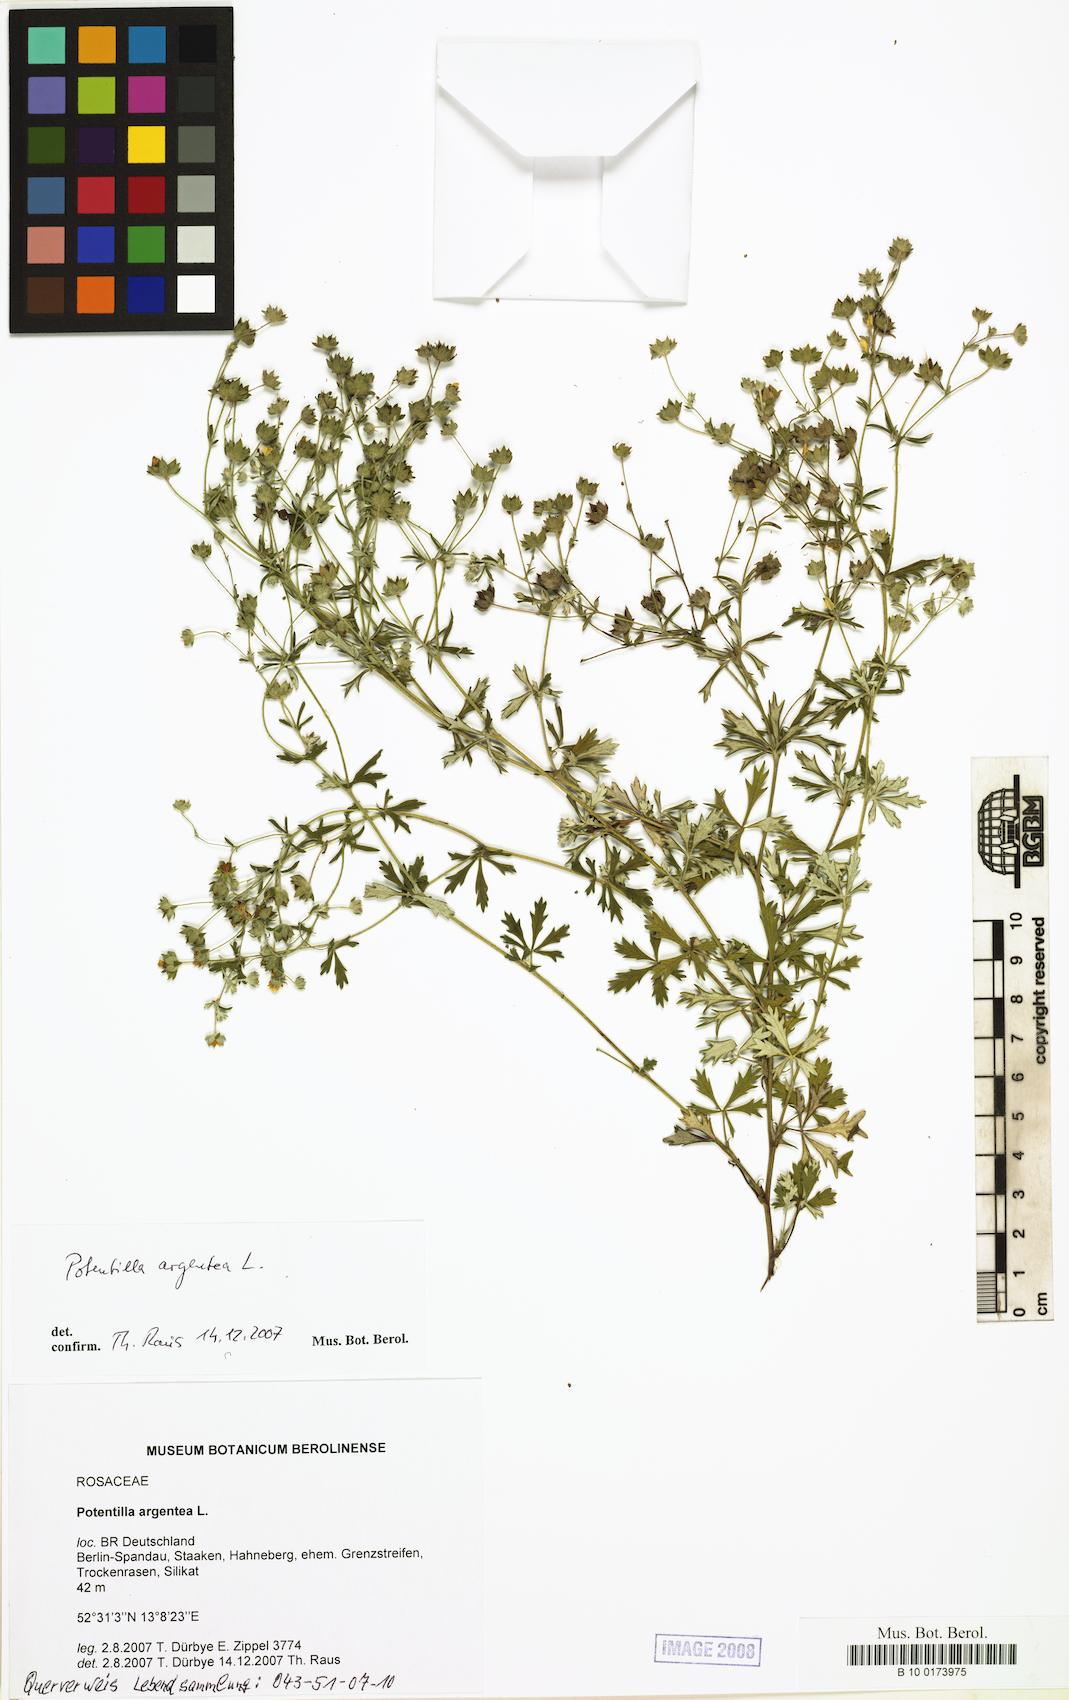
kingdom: Plantae
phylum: Tracheophyta
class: Magnoliopsida
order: Rosales
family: Rosaceae
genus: Potentilla
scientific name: Potentilla argentea
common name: Hoary cinquefoil
